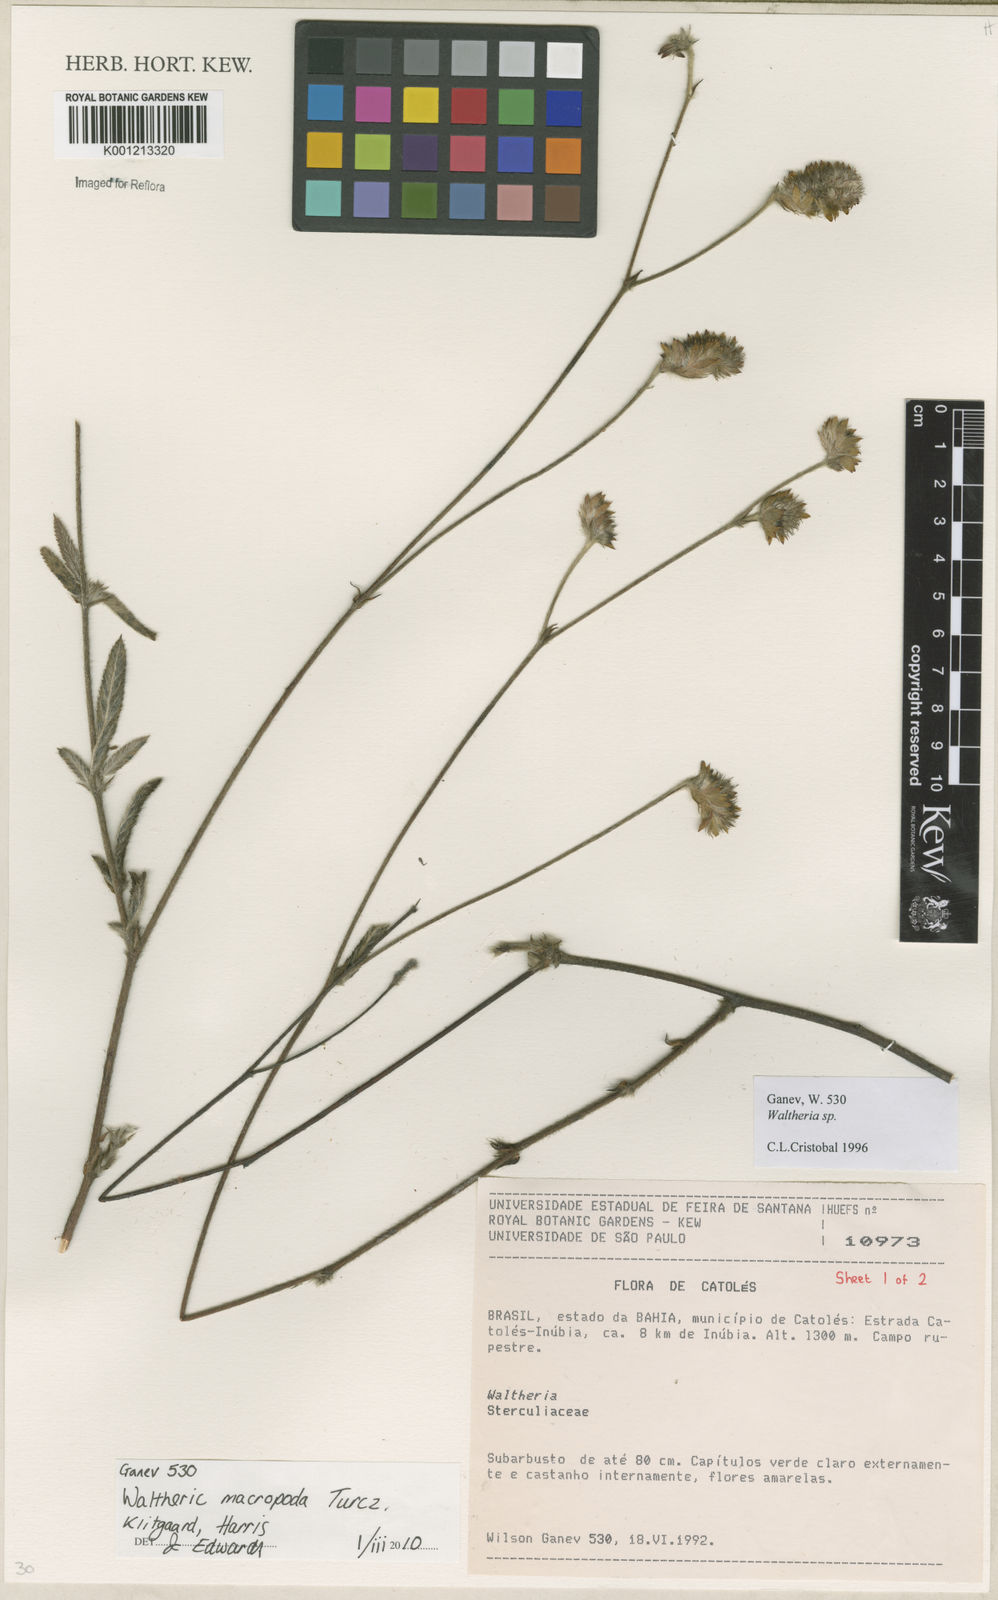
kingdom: Plantae
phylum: Tracheophyta
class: Magnoliopsida
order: Malvales
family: Malvaceae
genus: Waltheria
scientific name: Waltheria bracteosa
